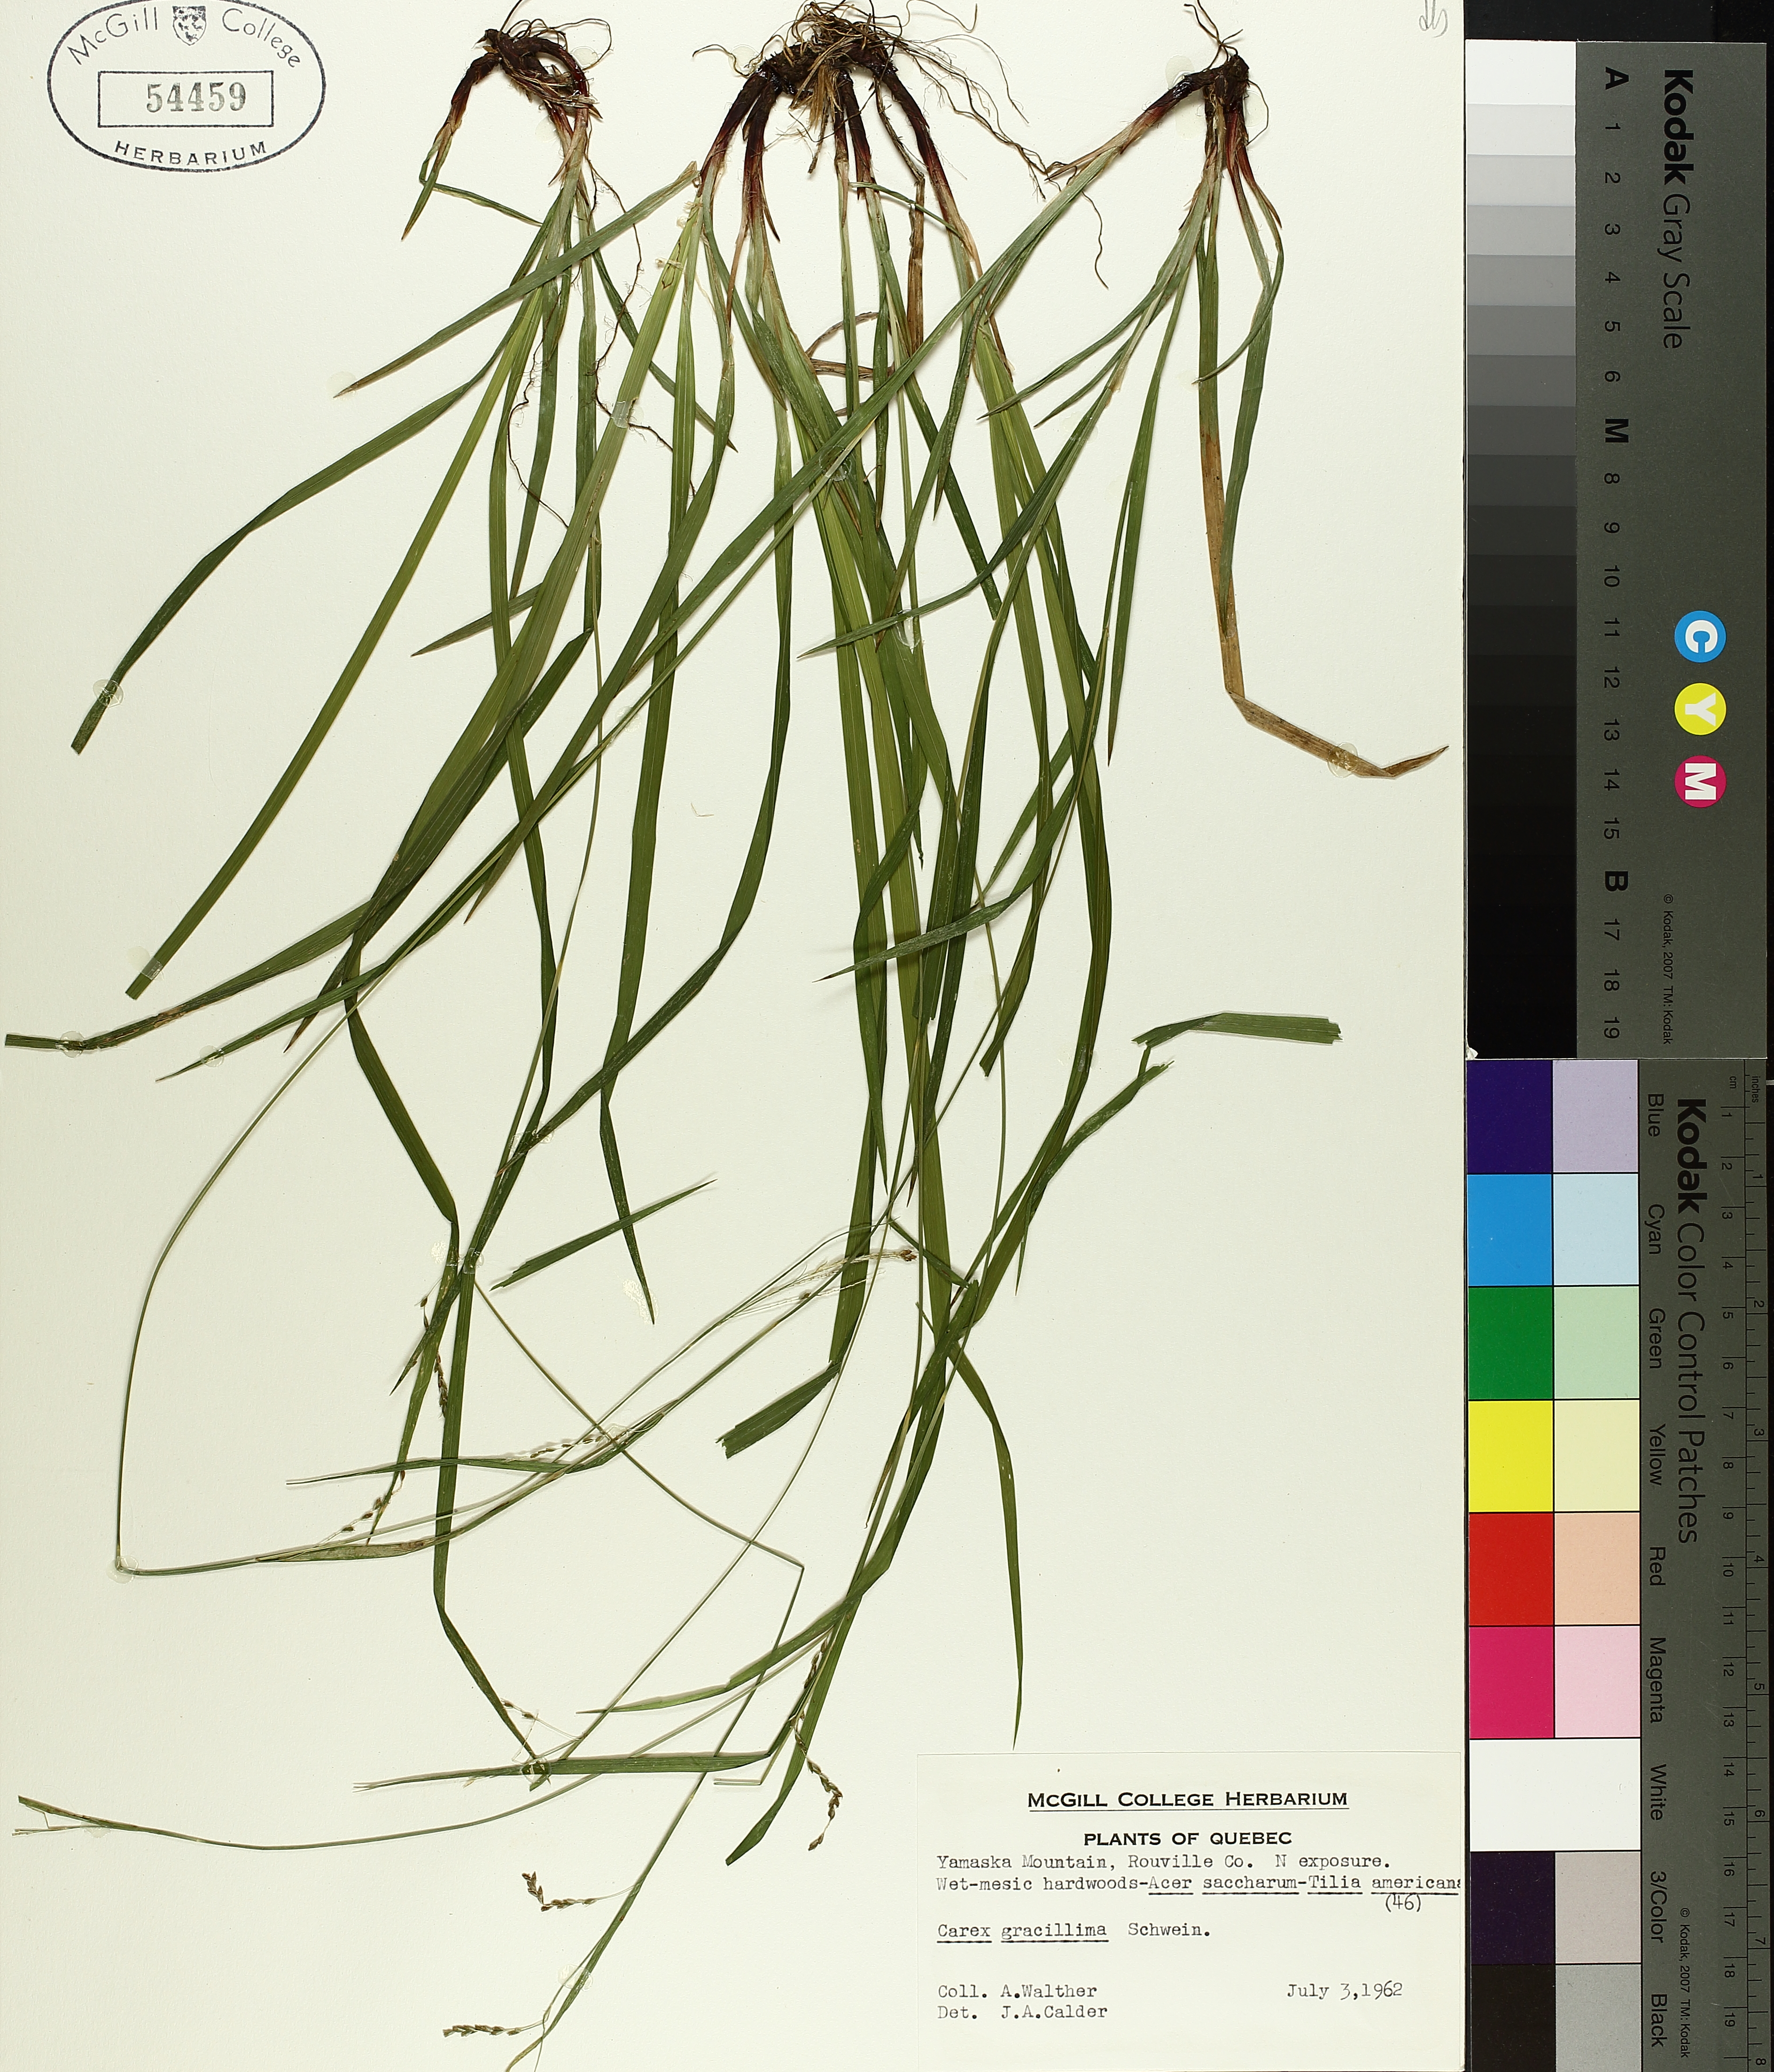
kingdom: Plantae
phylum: Tracheophyta
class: Liliopsida
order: Poales
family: Cyperaceae
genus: Carex
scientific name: Carex gracillima
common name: Graceful sedge
